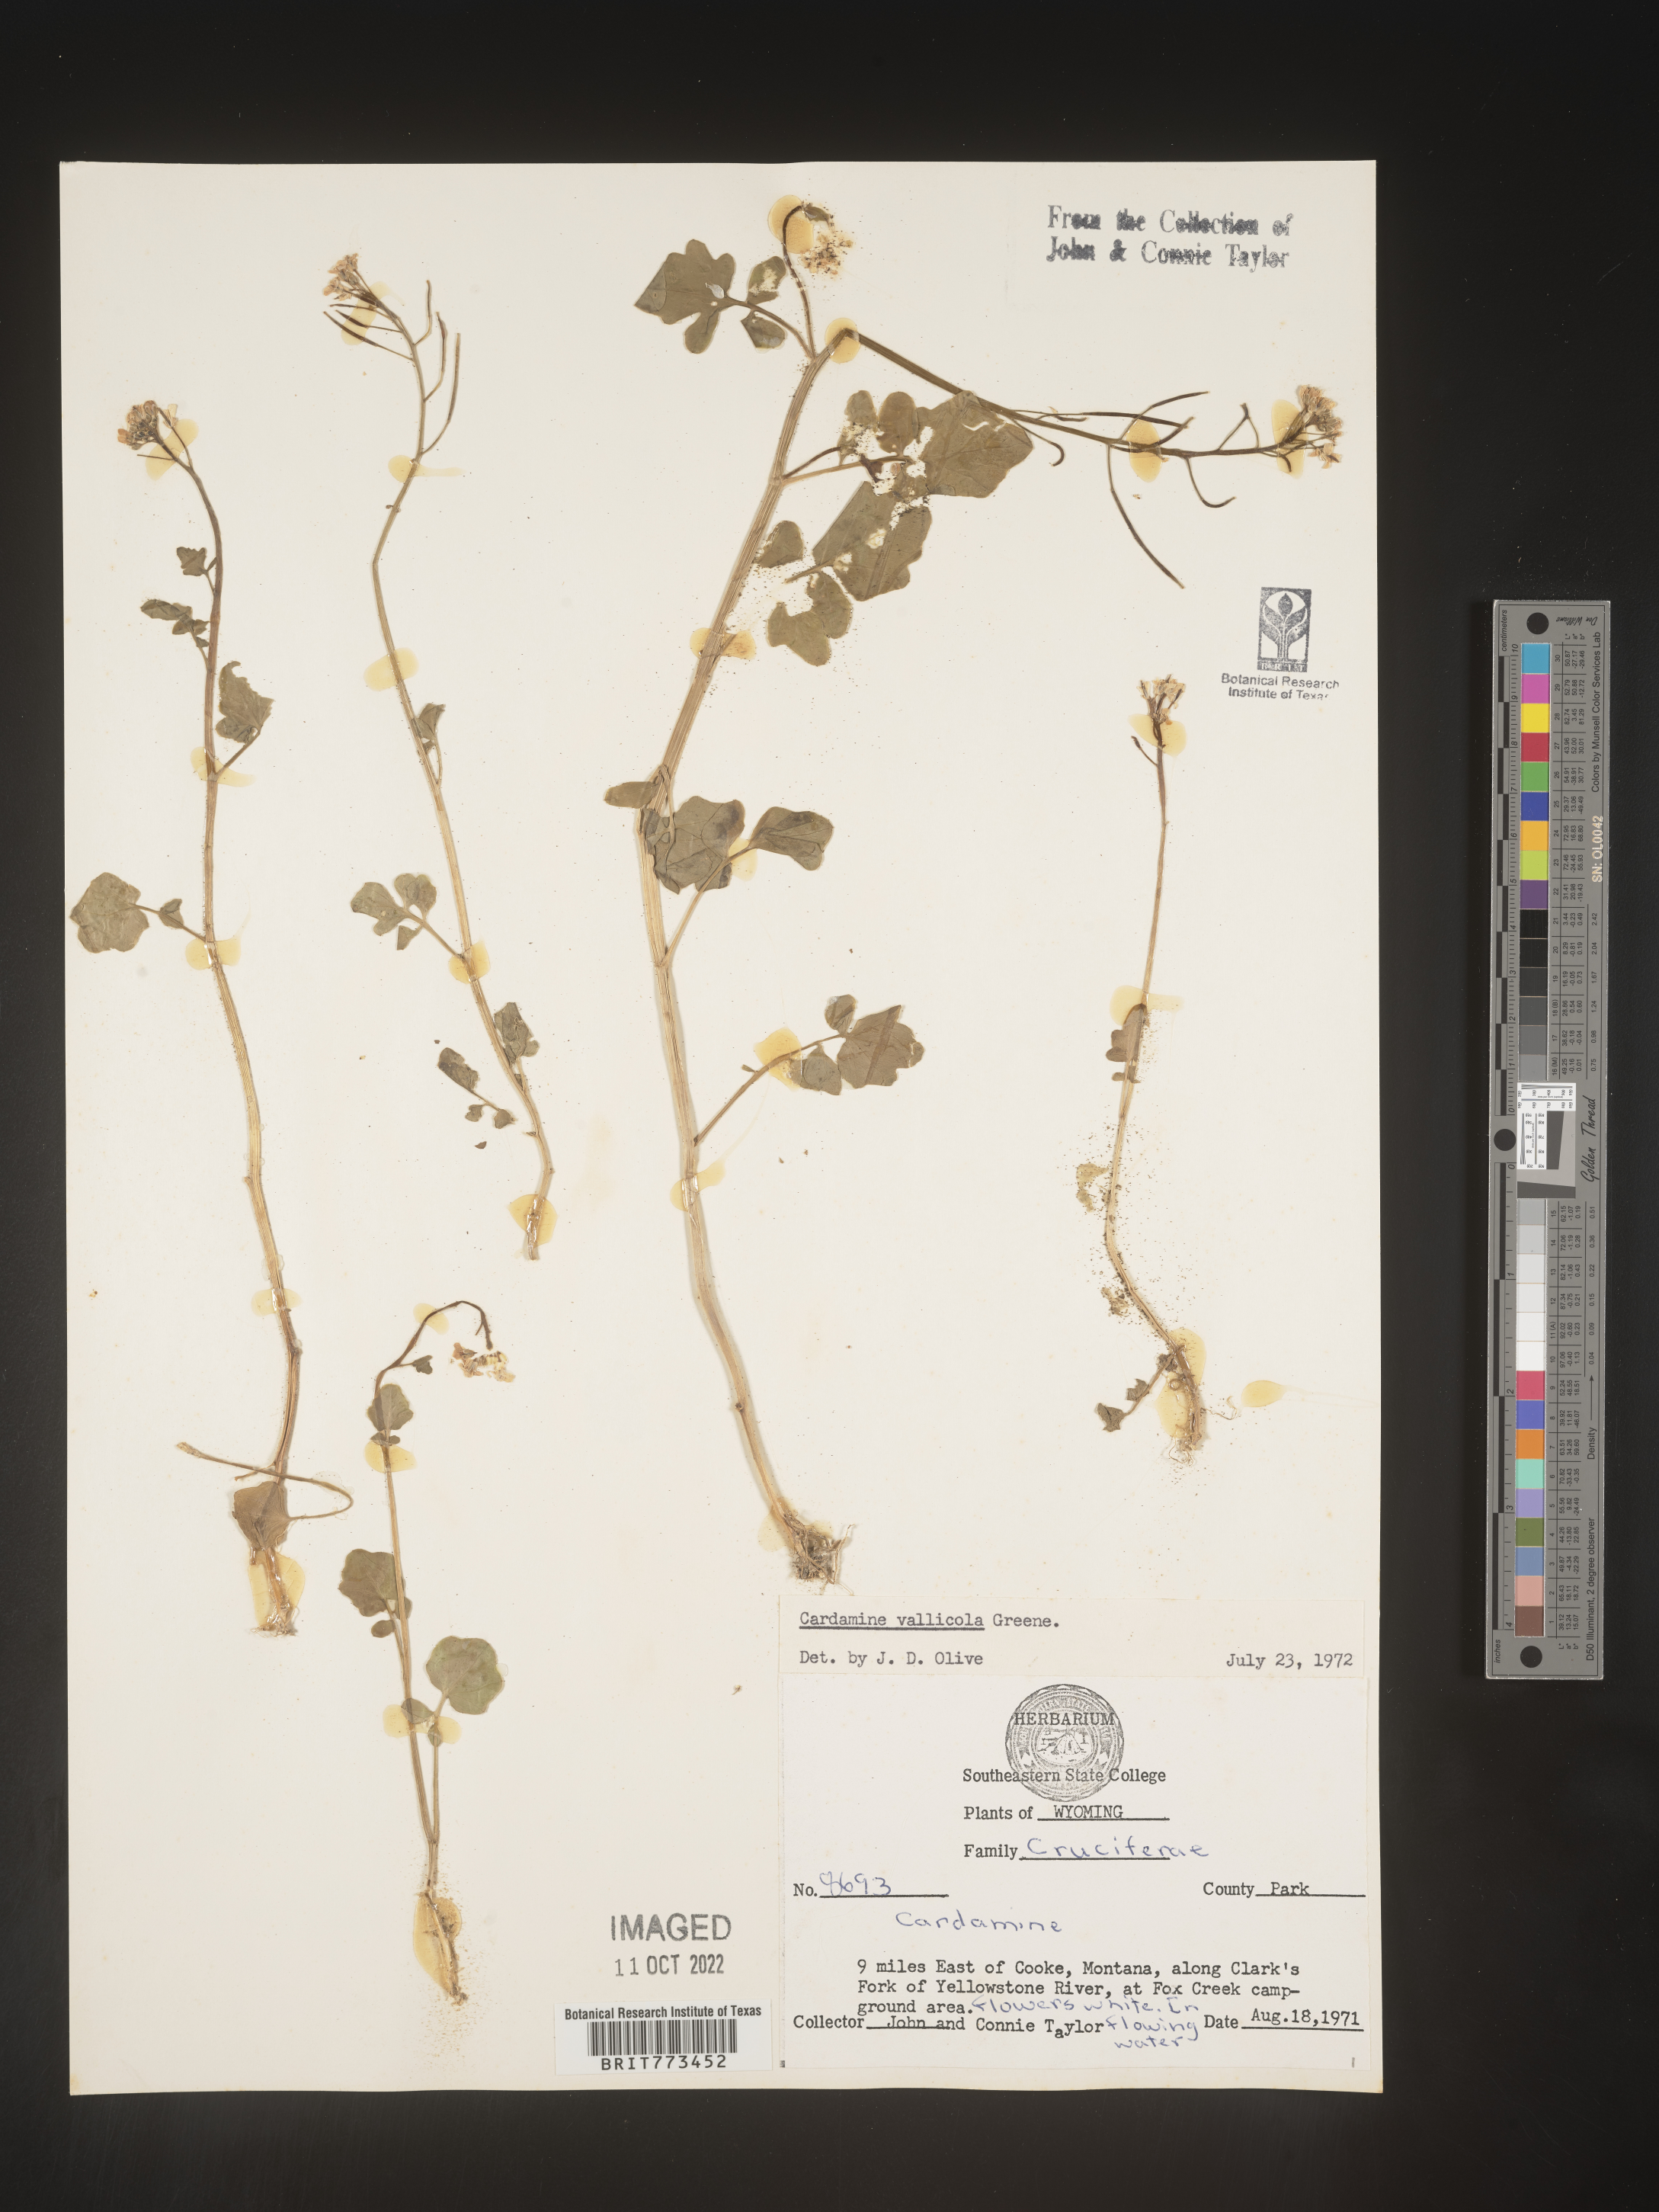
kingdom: Plantae
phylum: Tracheophyta
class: Magnoliopsida
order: Brassicales
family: Brassicaceae
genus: Cardamine
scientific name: Cardamine
